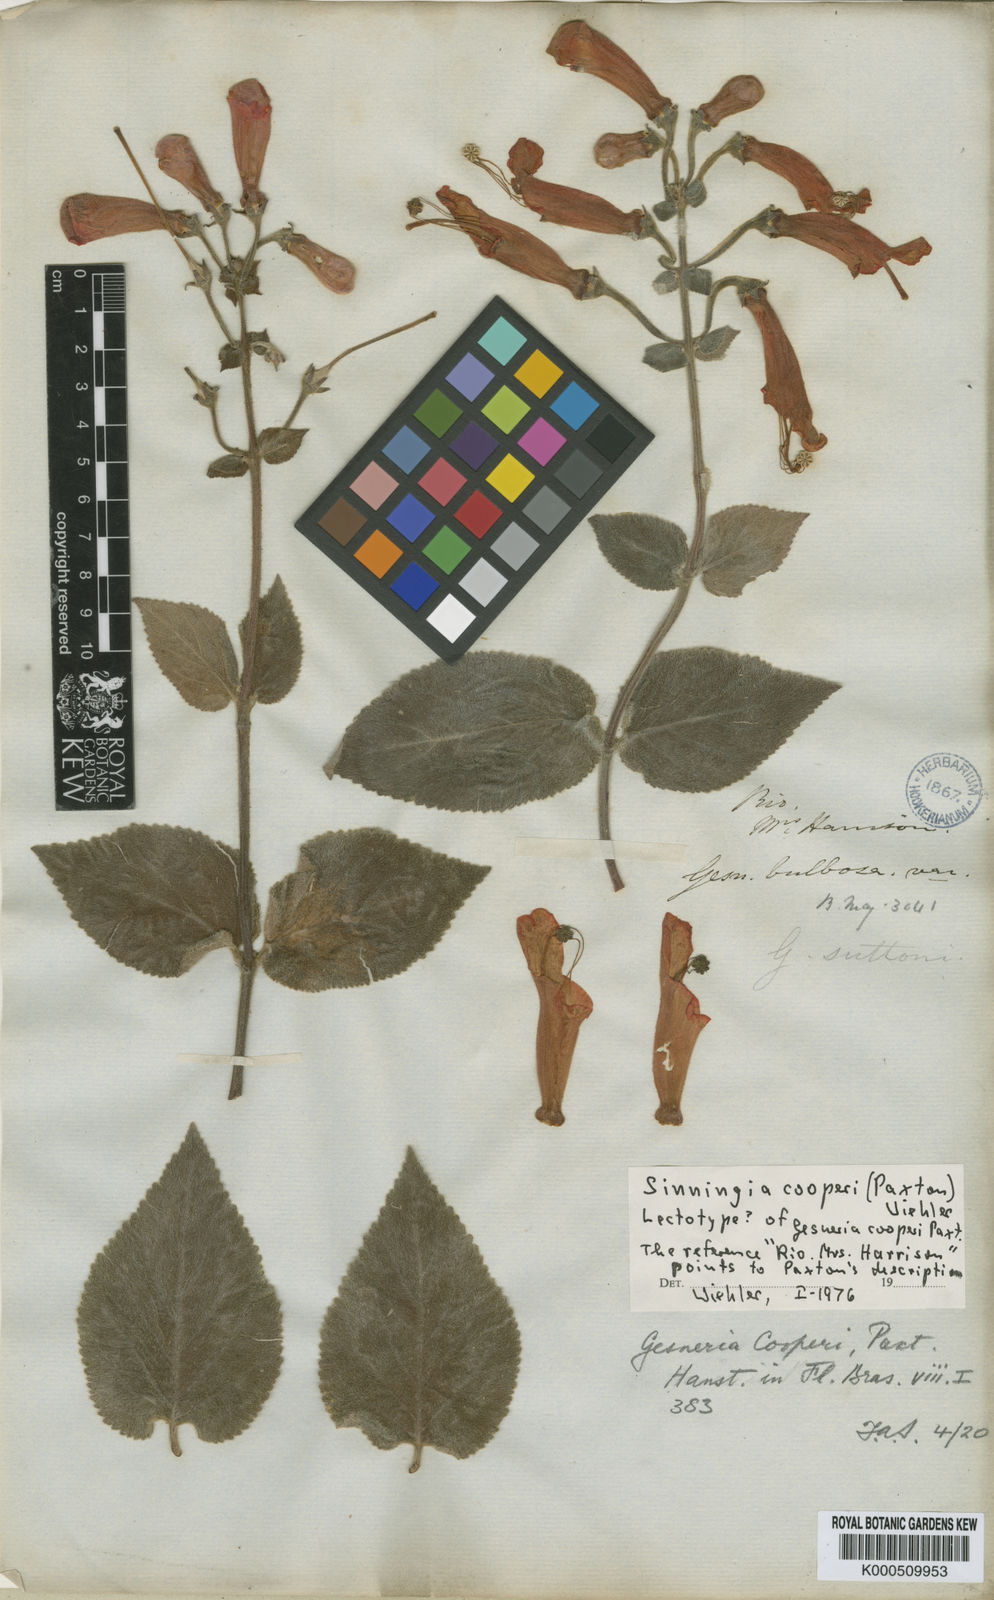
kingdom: Plantae
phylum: Tracheophyta
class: Magnoliopsida
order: Lamiales
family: Gesneriaceae
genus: Gesneria
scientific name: Gesneria
